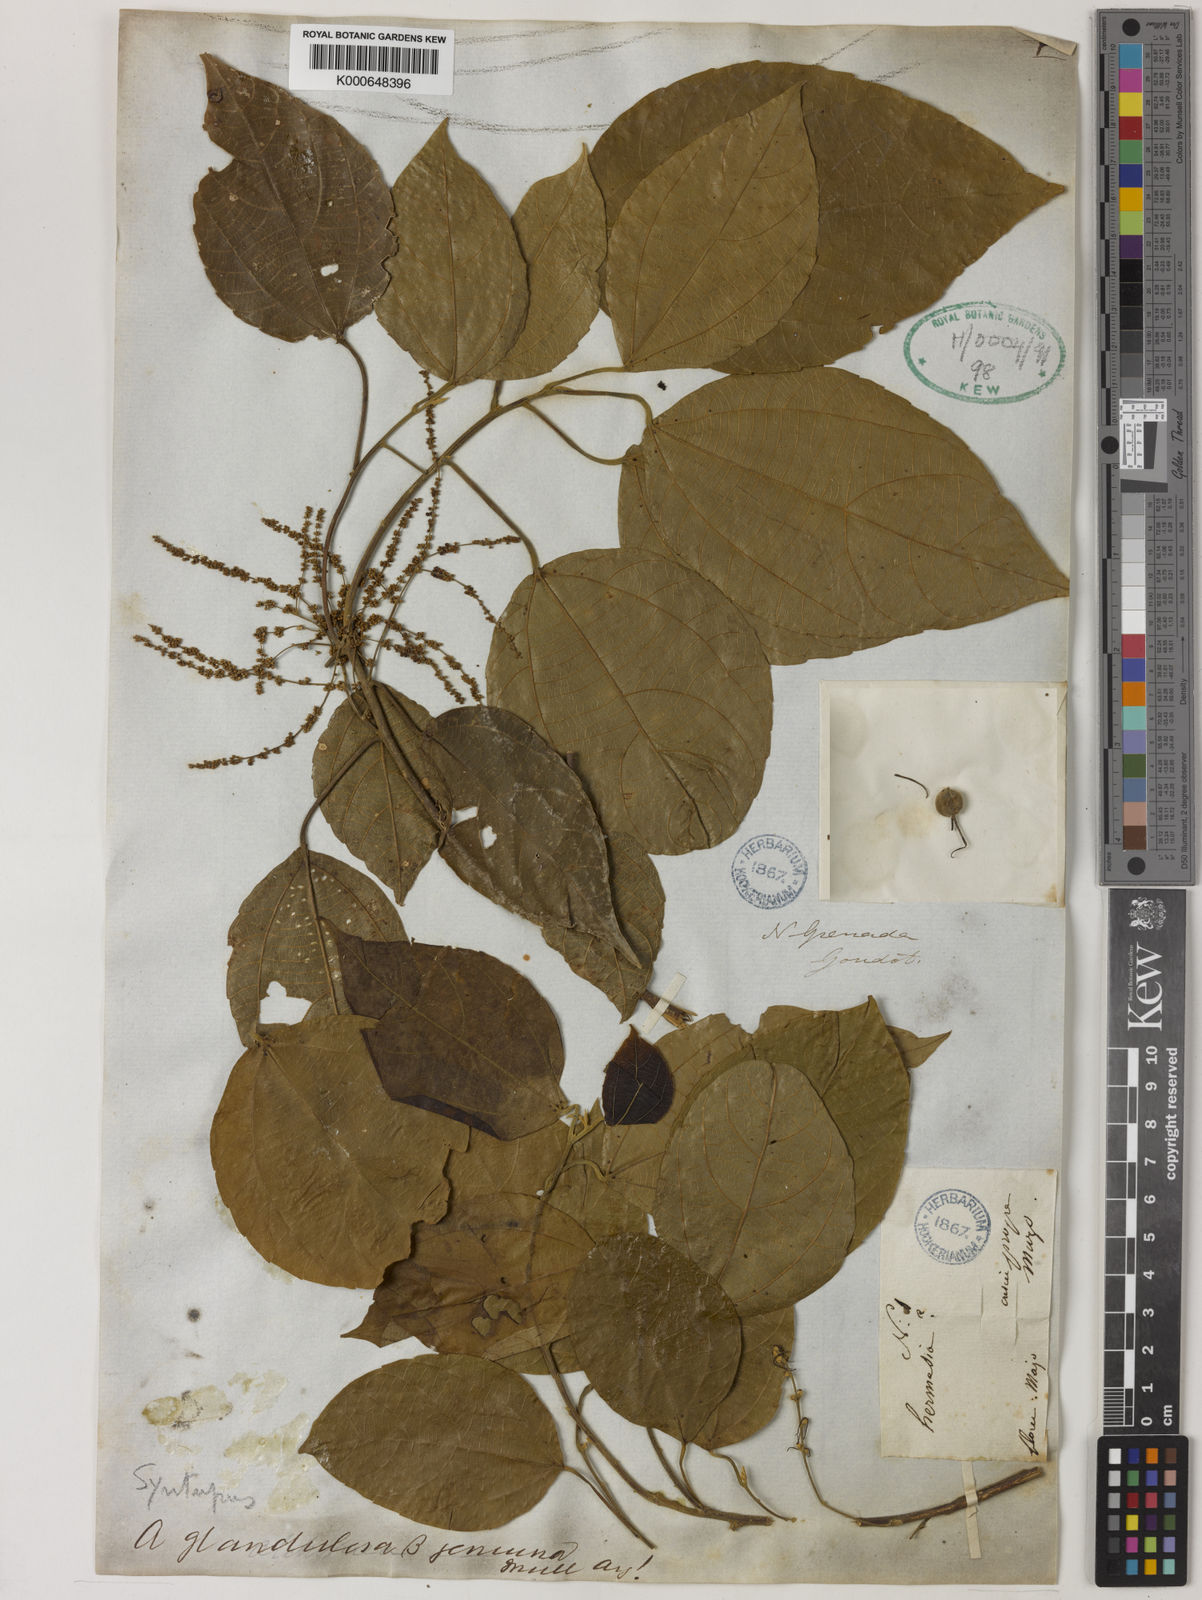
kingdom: Plantae
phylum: Tracheophyta
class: Magnoliopsida
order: Malpighiales
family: Euphorbiaceae
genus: Alchornea
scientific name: Alchornea glandulosa
